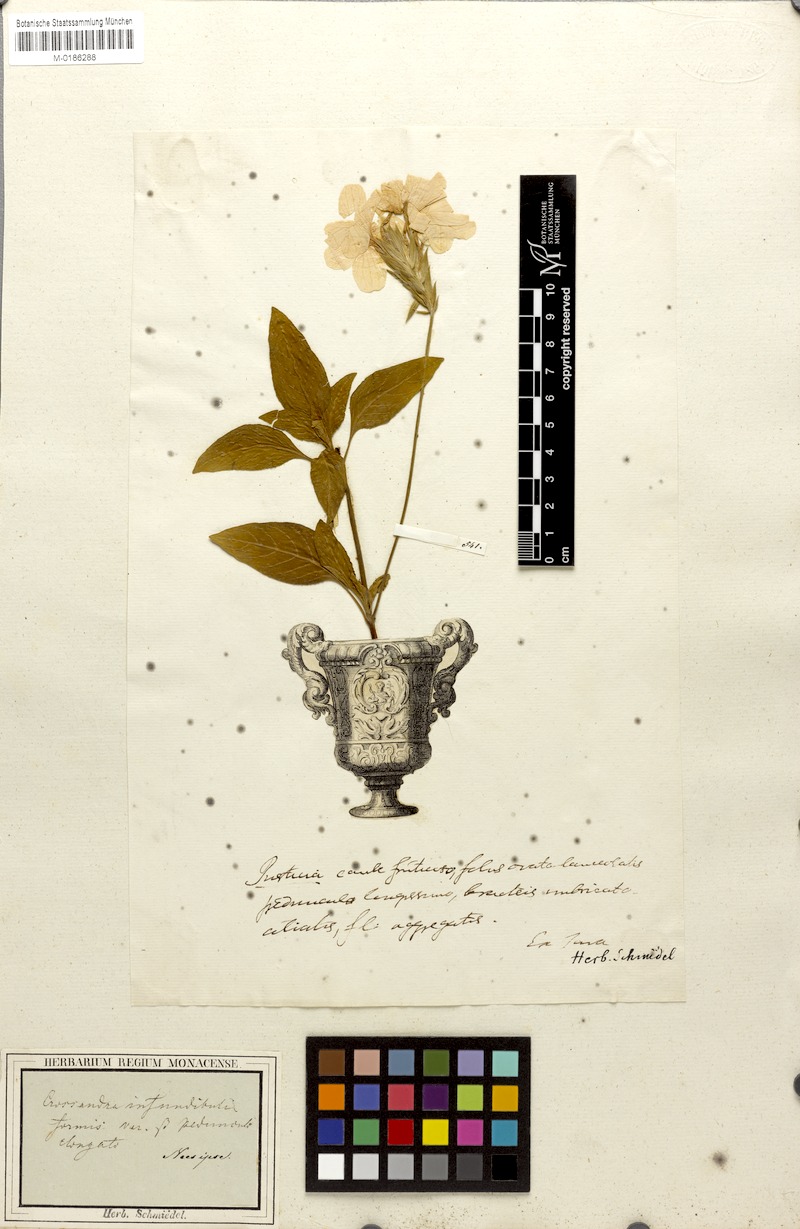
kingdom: Plantae
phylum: Tracheophyta
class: Magnoliopsida
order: Lamiales
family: Acanthaceae
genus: Crossandra
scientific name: Crossandra infundibuliformis
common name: Firecracker-flower
